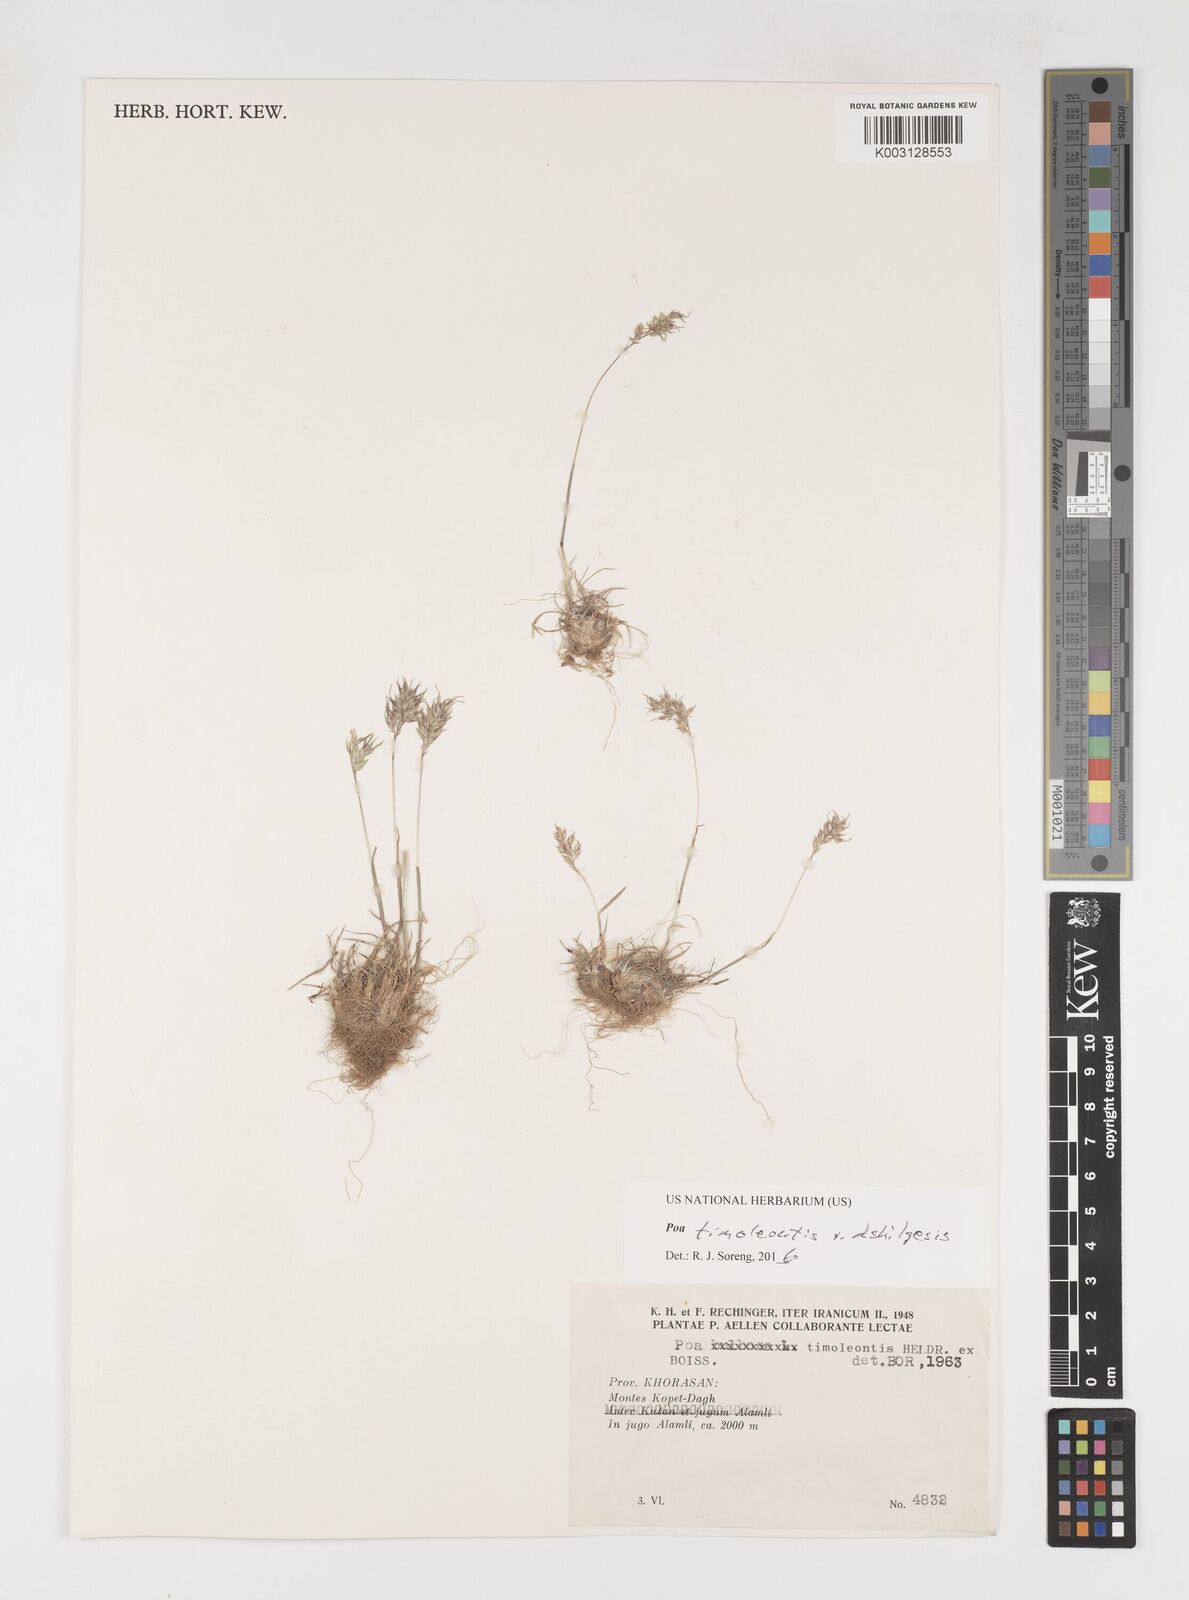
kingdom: Plantae
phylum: Tracheophyta
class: Liliopsida
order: Poales
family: Poaceae
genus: Poa
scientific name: Poa timoleontis
